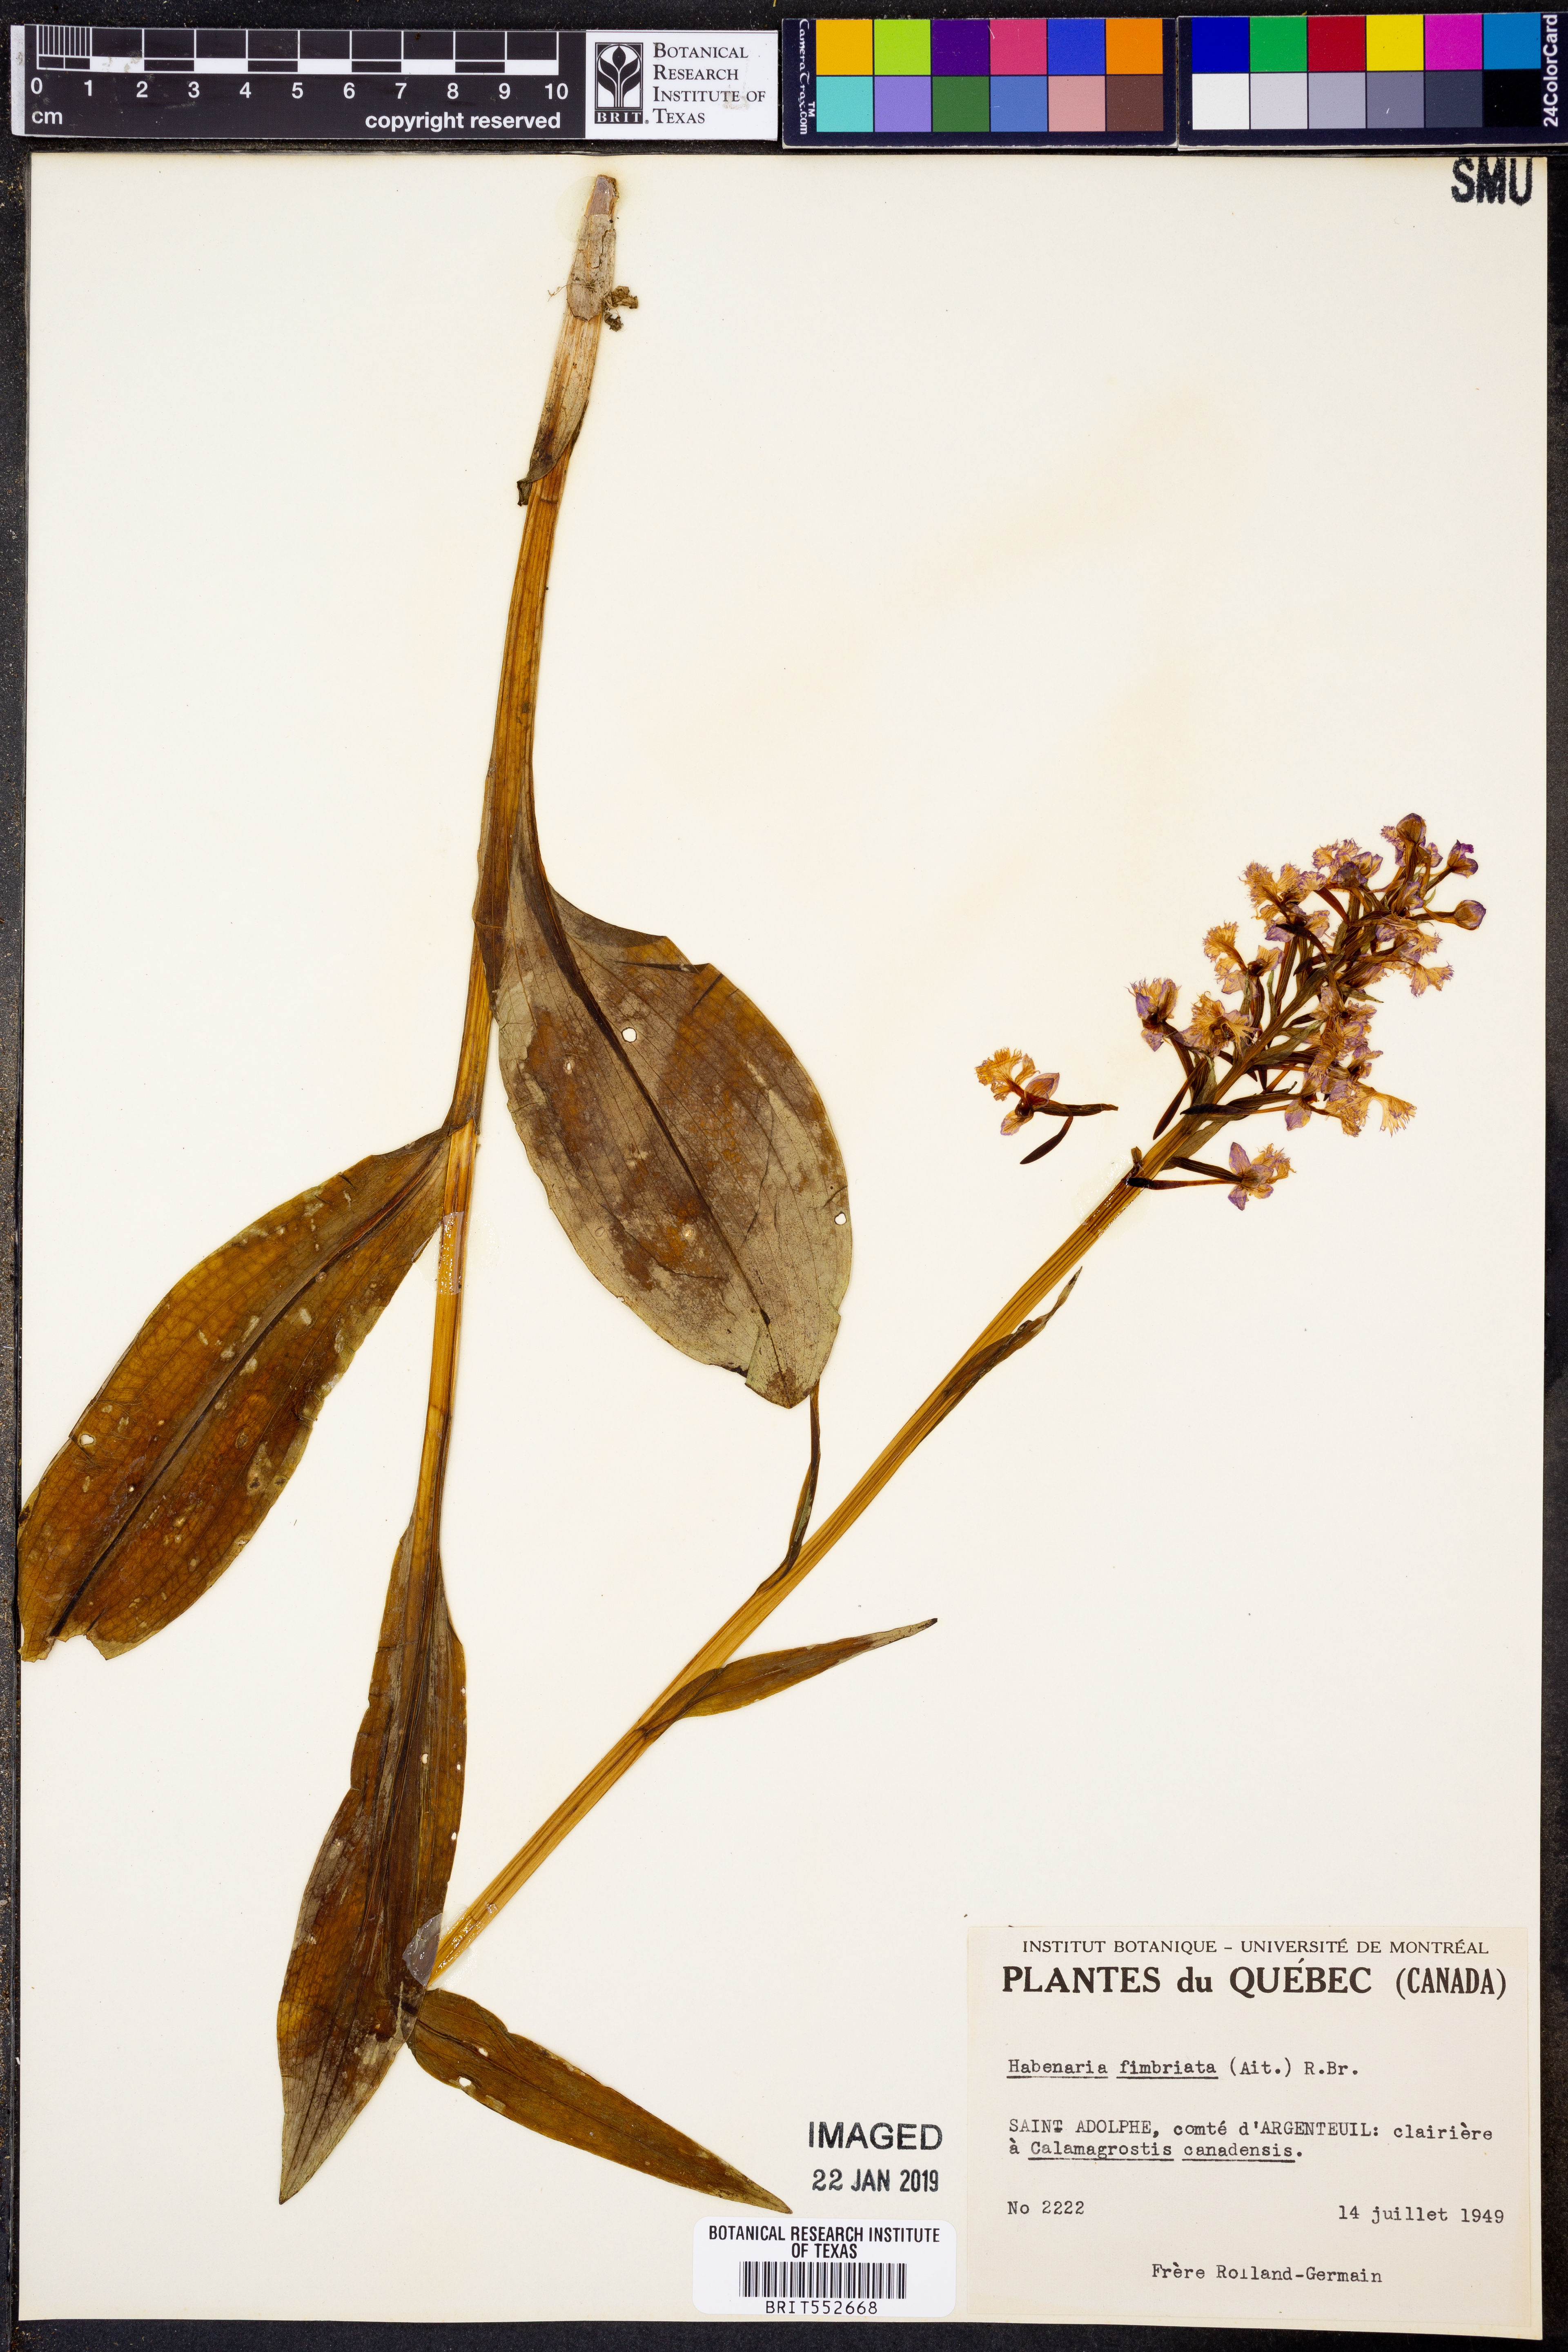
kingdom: Plantae
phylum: Tracheophyta
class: Liliopsida
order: Asparagales
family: Orchidaceae
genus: Platanthera
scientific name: Platanthera grandiflora
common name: Greater purple fringed orchid
